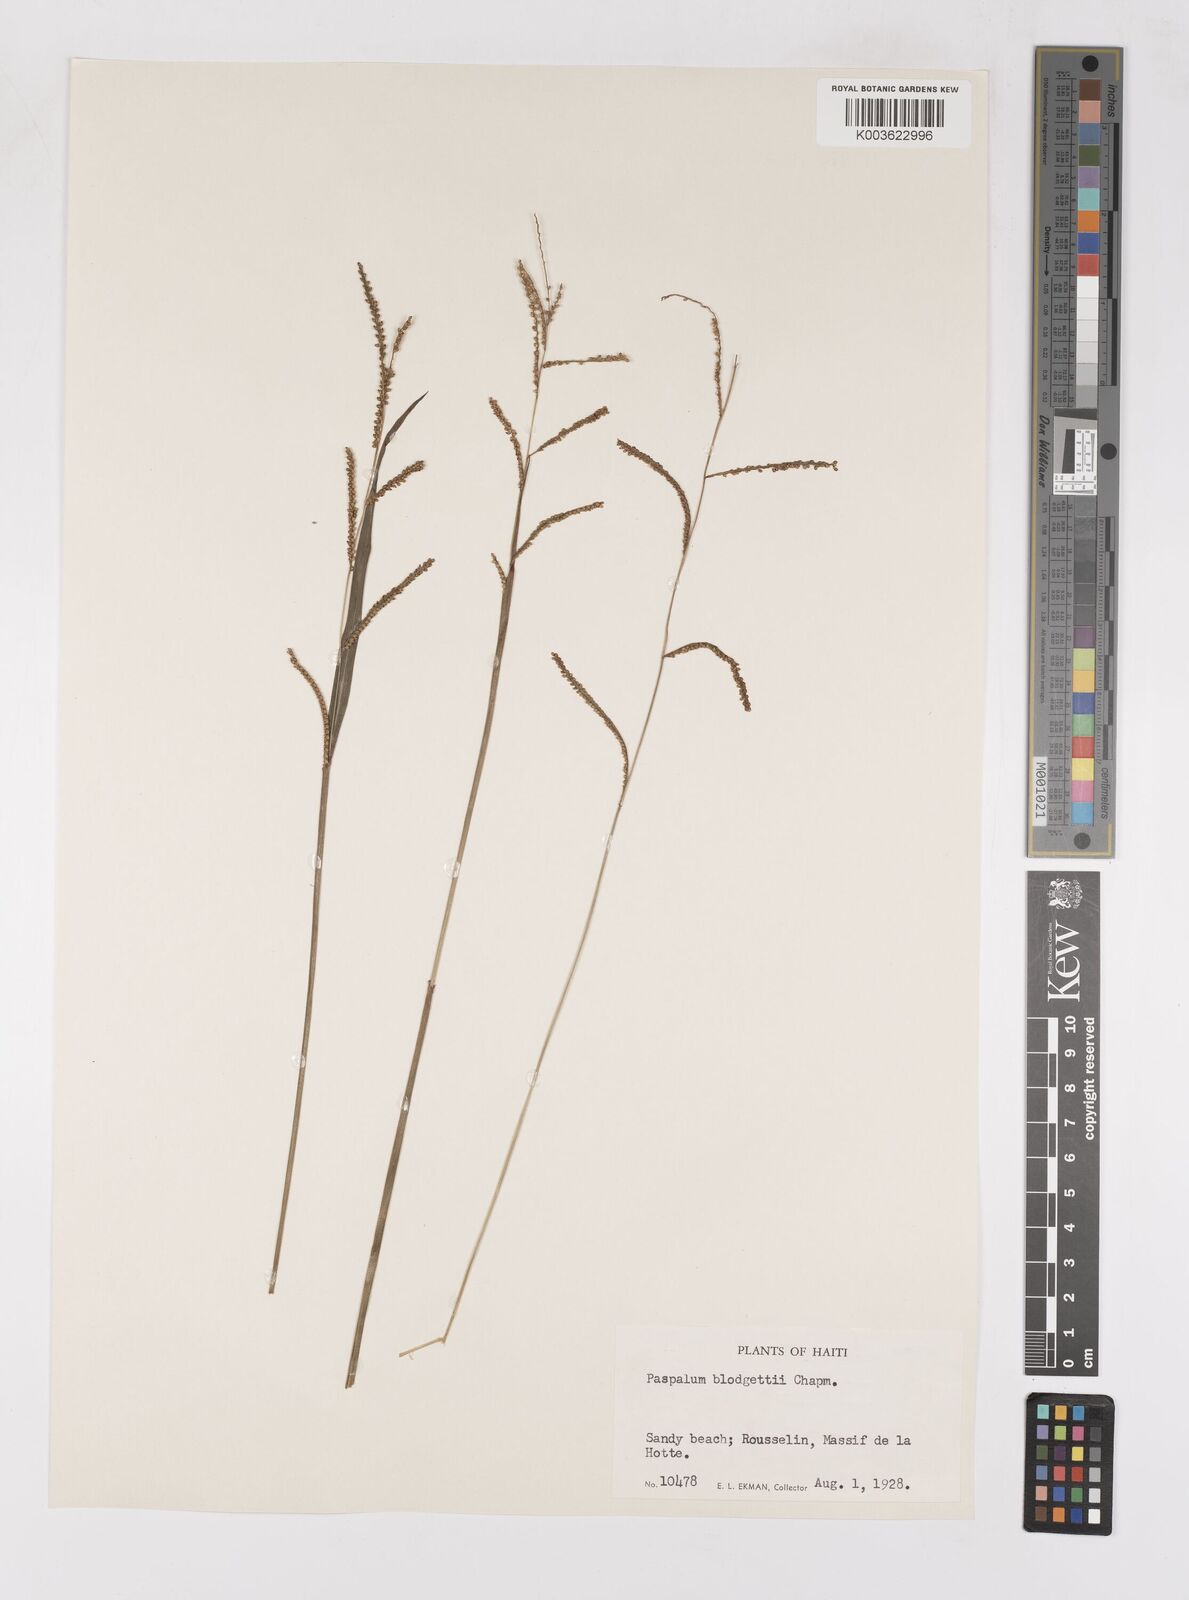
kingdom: Plantae
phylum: Tracheophyta
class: Liliopsida
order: Poales
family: Poaceae
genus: Paspalum
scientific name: Paspalum blodgettii
